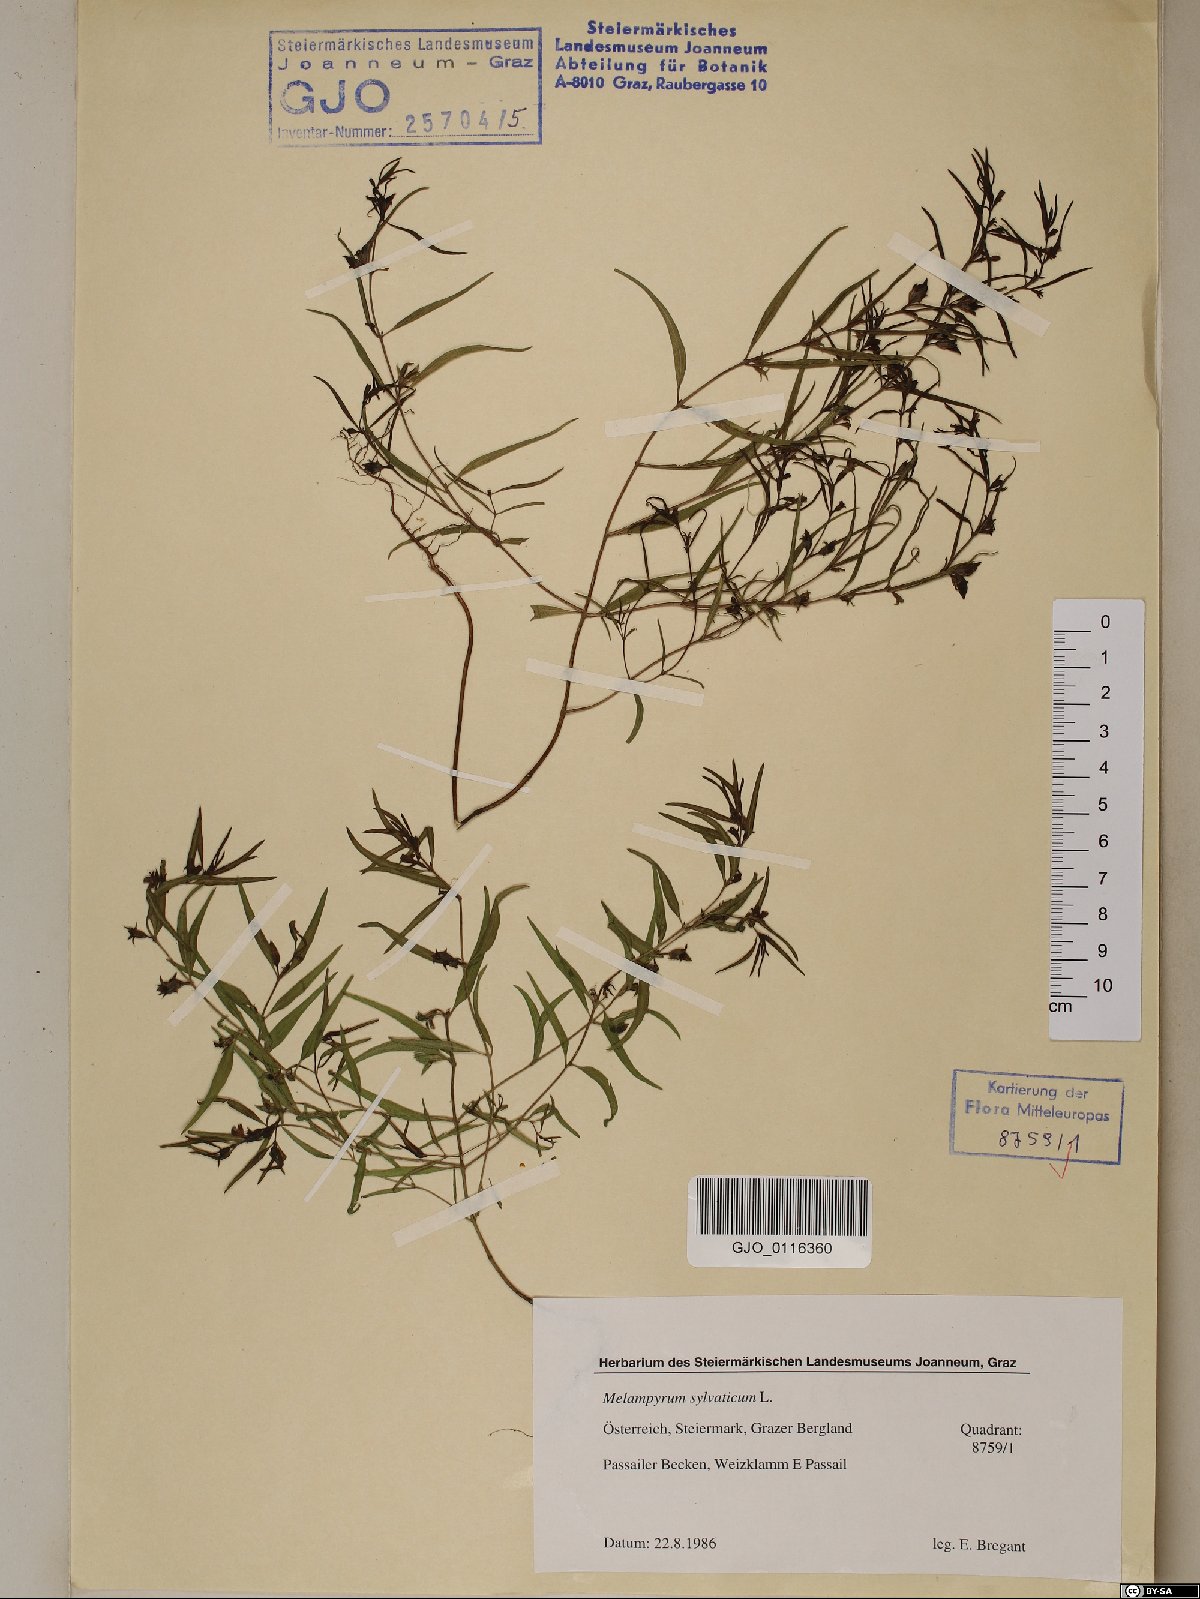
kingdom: Plantae
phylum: Tracheophyta
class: Magnoliopsida
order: Lamiales
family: Orobanchaceae
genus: Melampyrum
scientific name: Melampyrum sylvaticum
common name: Small cow-wheat
